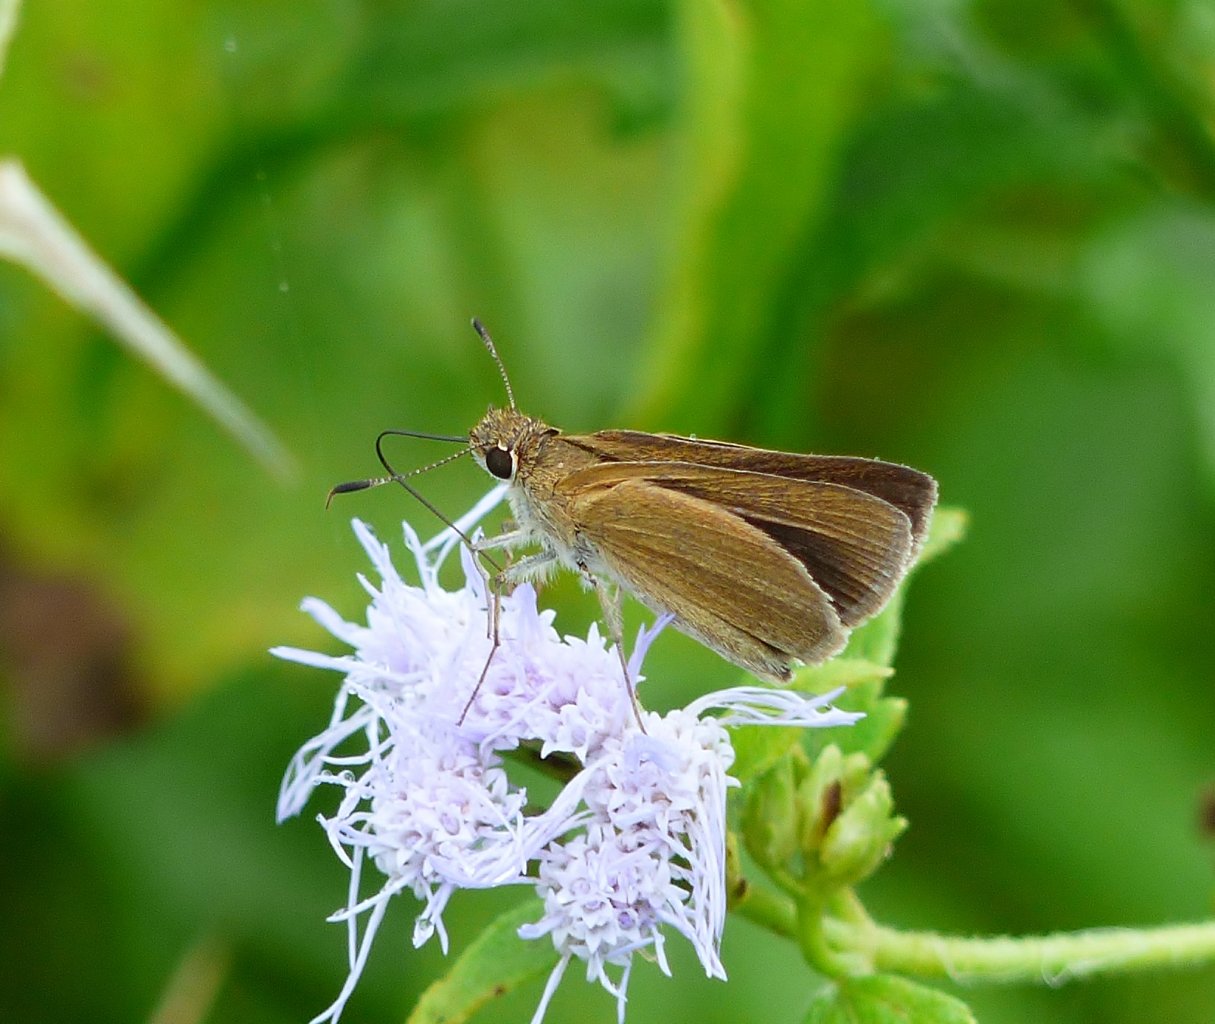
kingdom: Animalia
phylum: Arthropoda
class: Insecta
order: Lepidoptera
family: Hesperiidae
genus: Nastra
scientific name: Nastra julia
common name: Julia's Skipper
